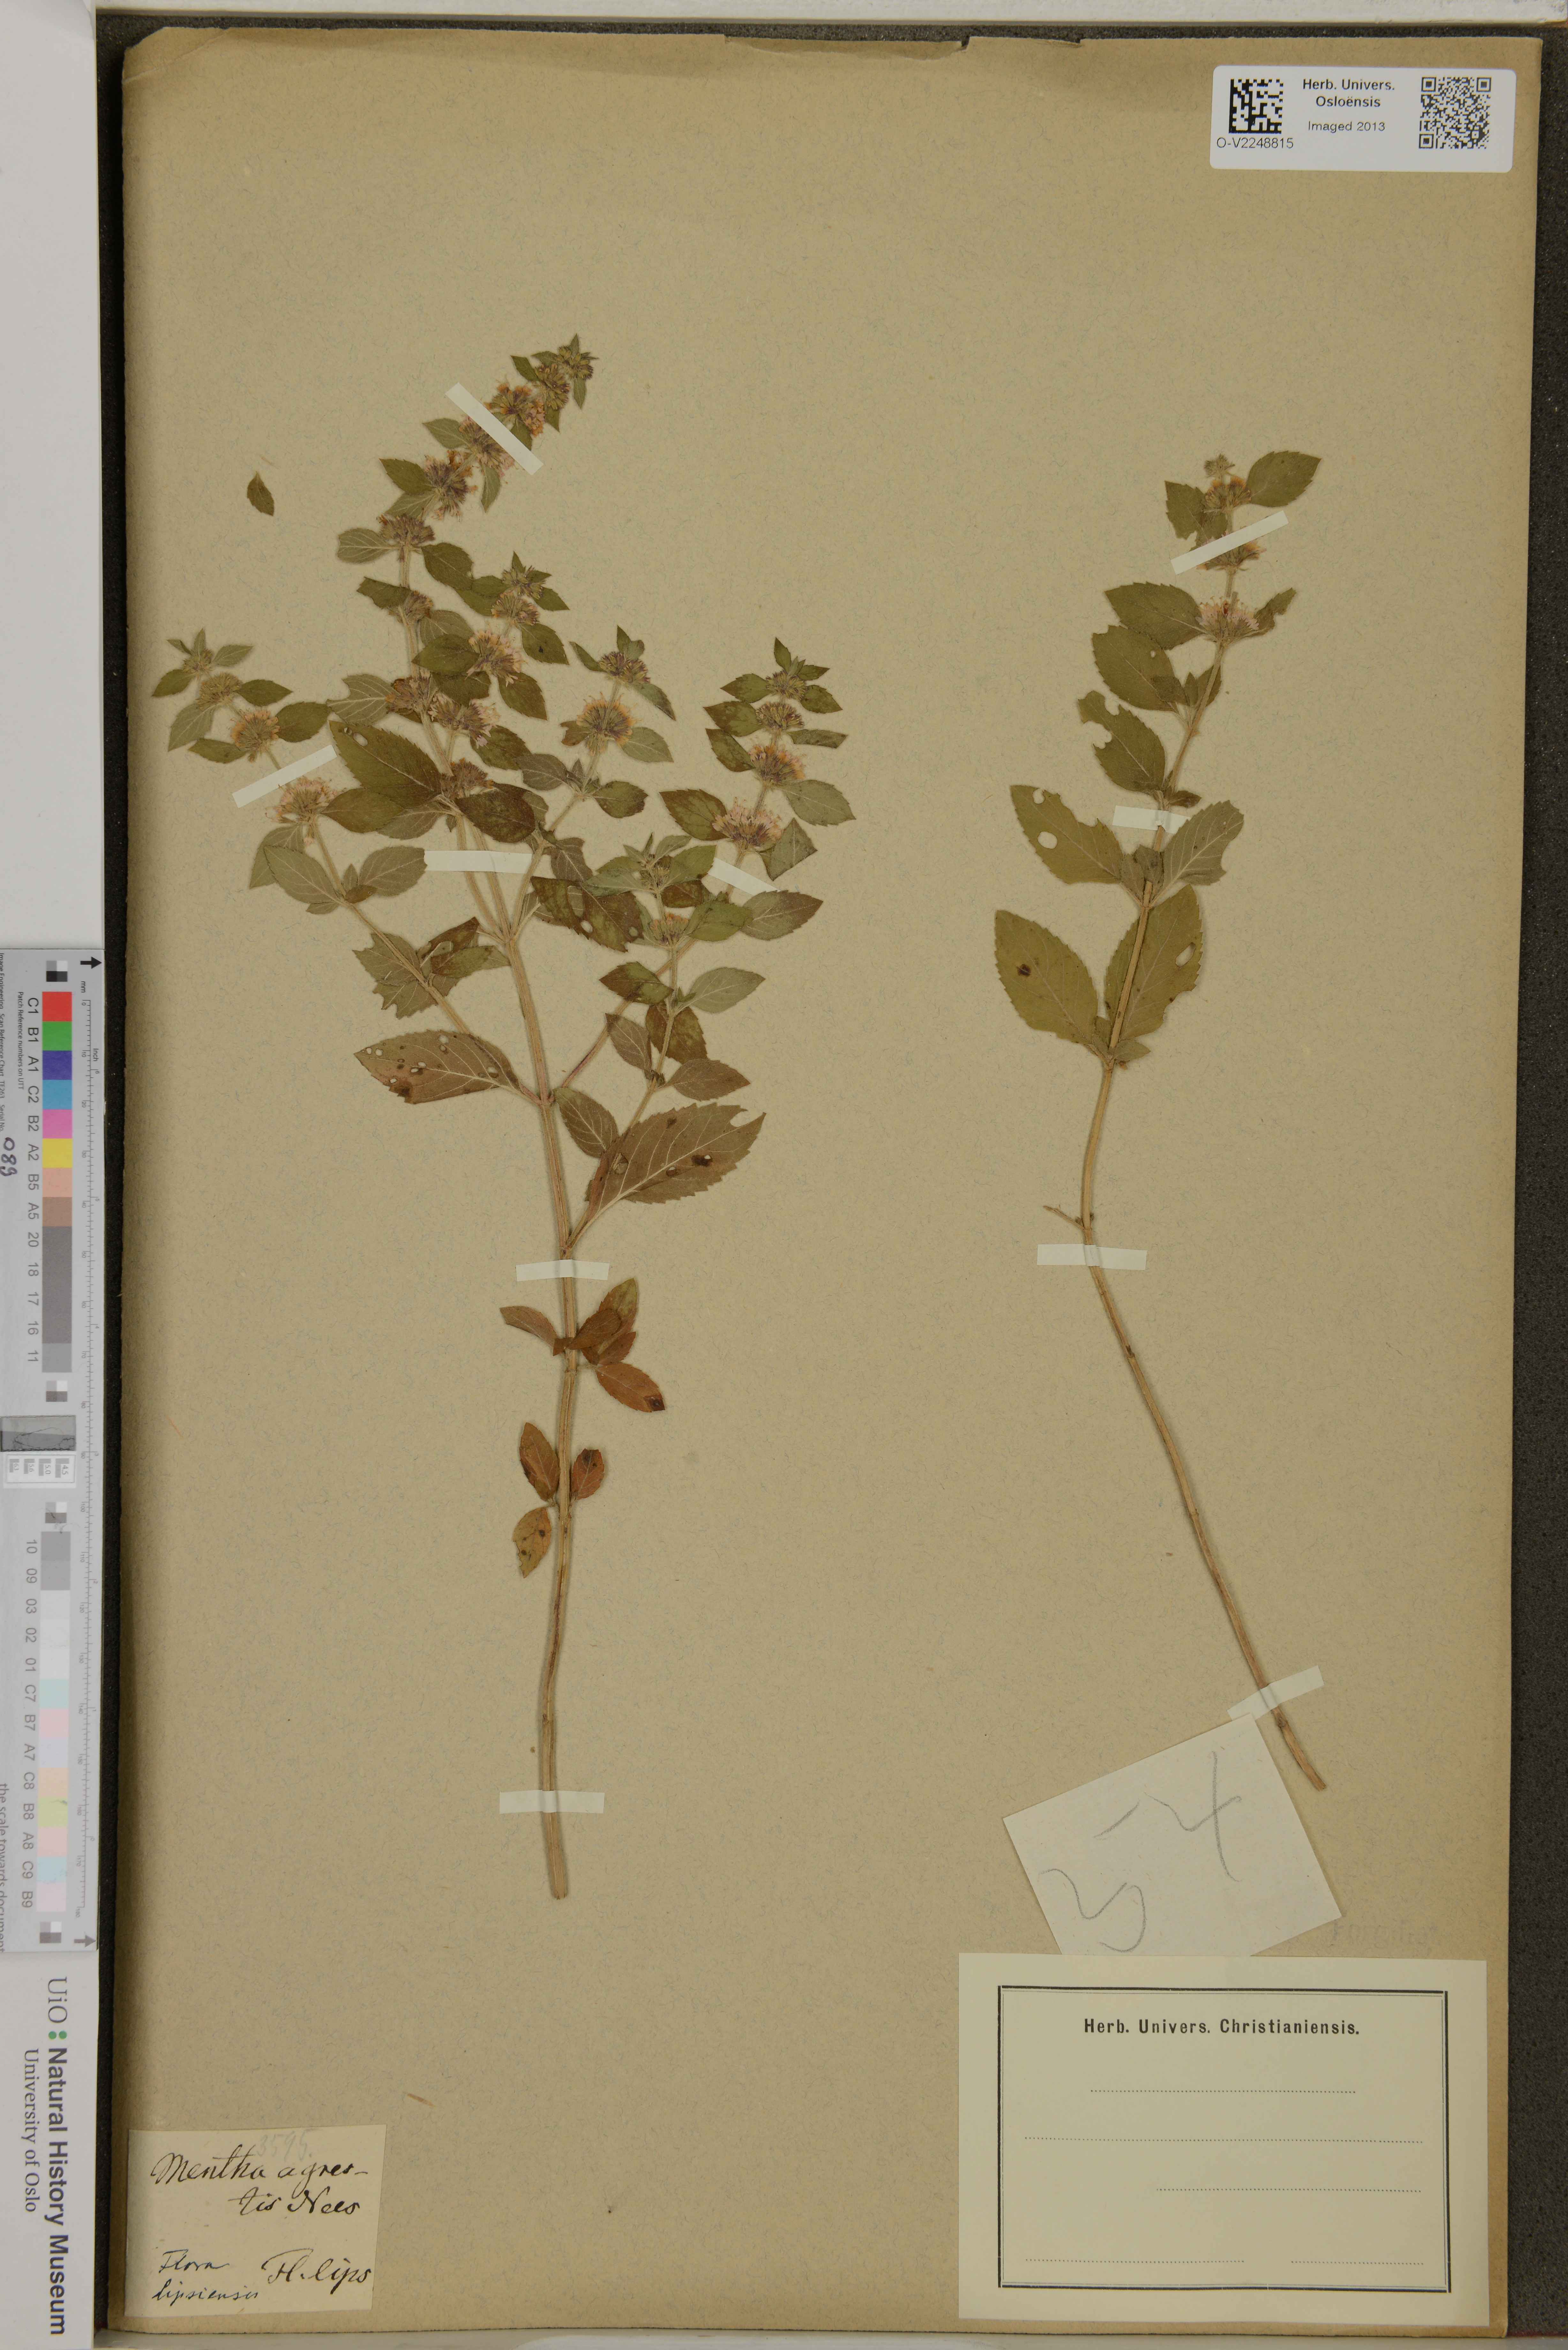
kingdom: Plantae
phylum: Tracheophyta
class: Magnoliopsida
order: Lamiales
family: Lamiaceae
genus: Mentha
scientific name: Mentha
